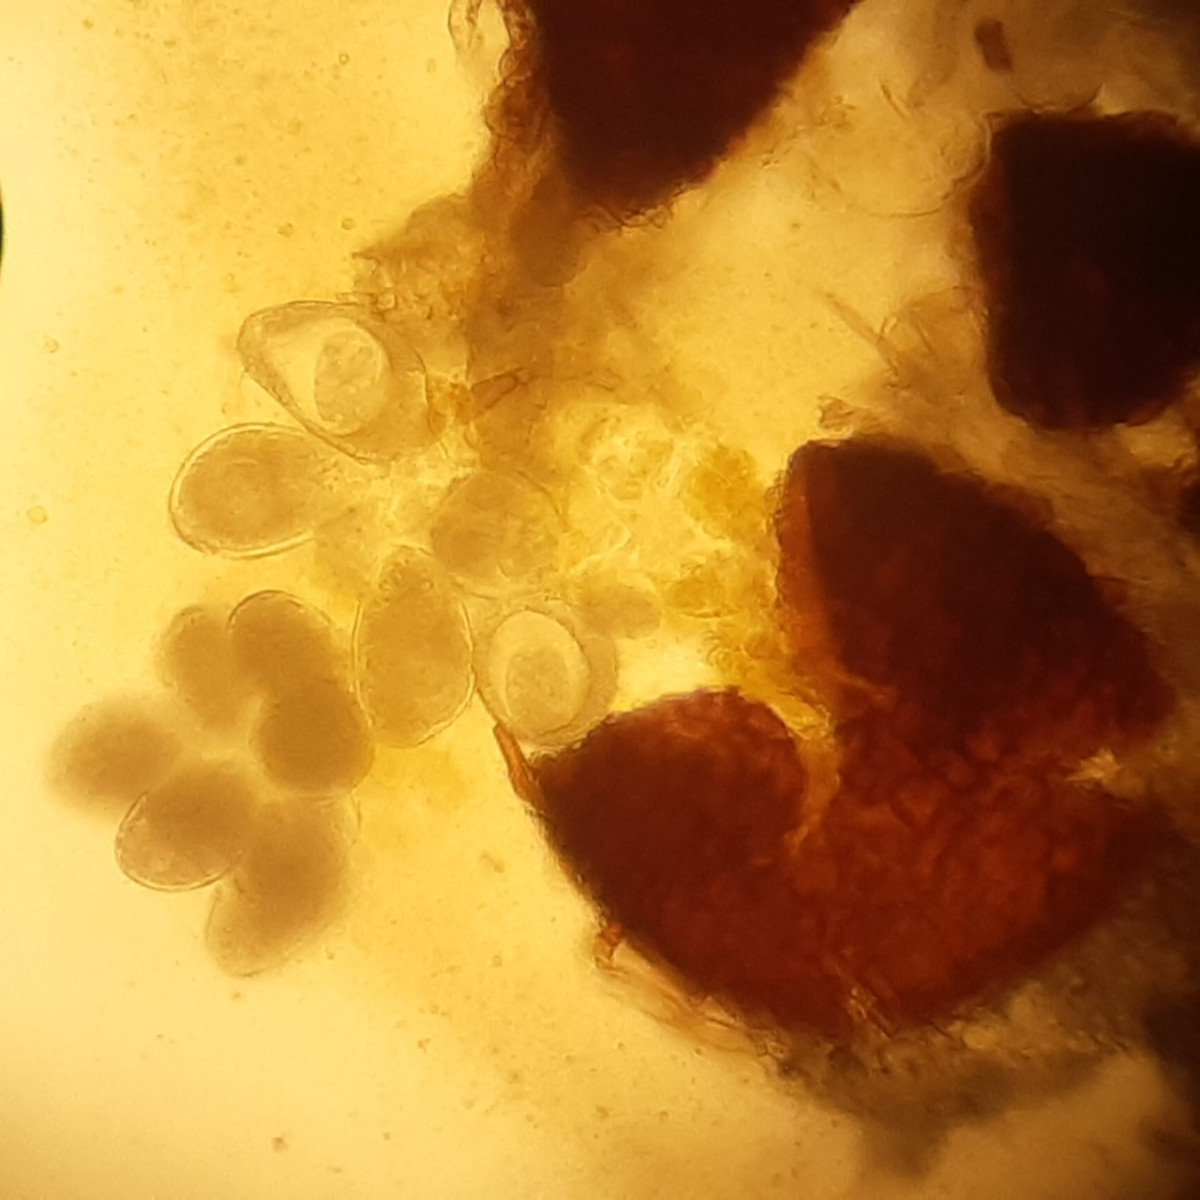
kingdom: Fungi
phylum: Ascomycota
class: Leotiomycetes
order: Helotiales
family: Erysiphaceae
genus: Golovinomyces
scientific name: Golovinomyces sordidus
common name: Plantain mildew
